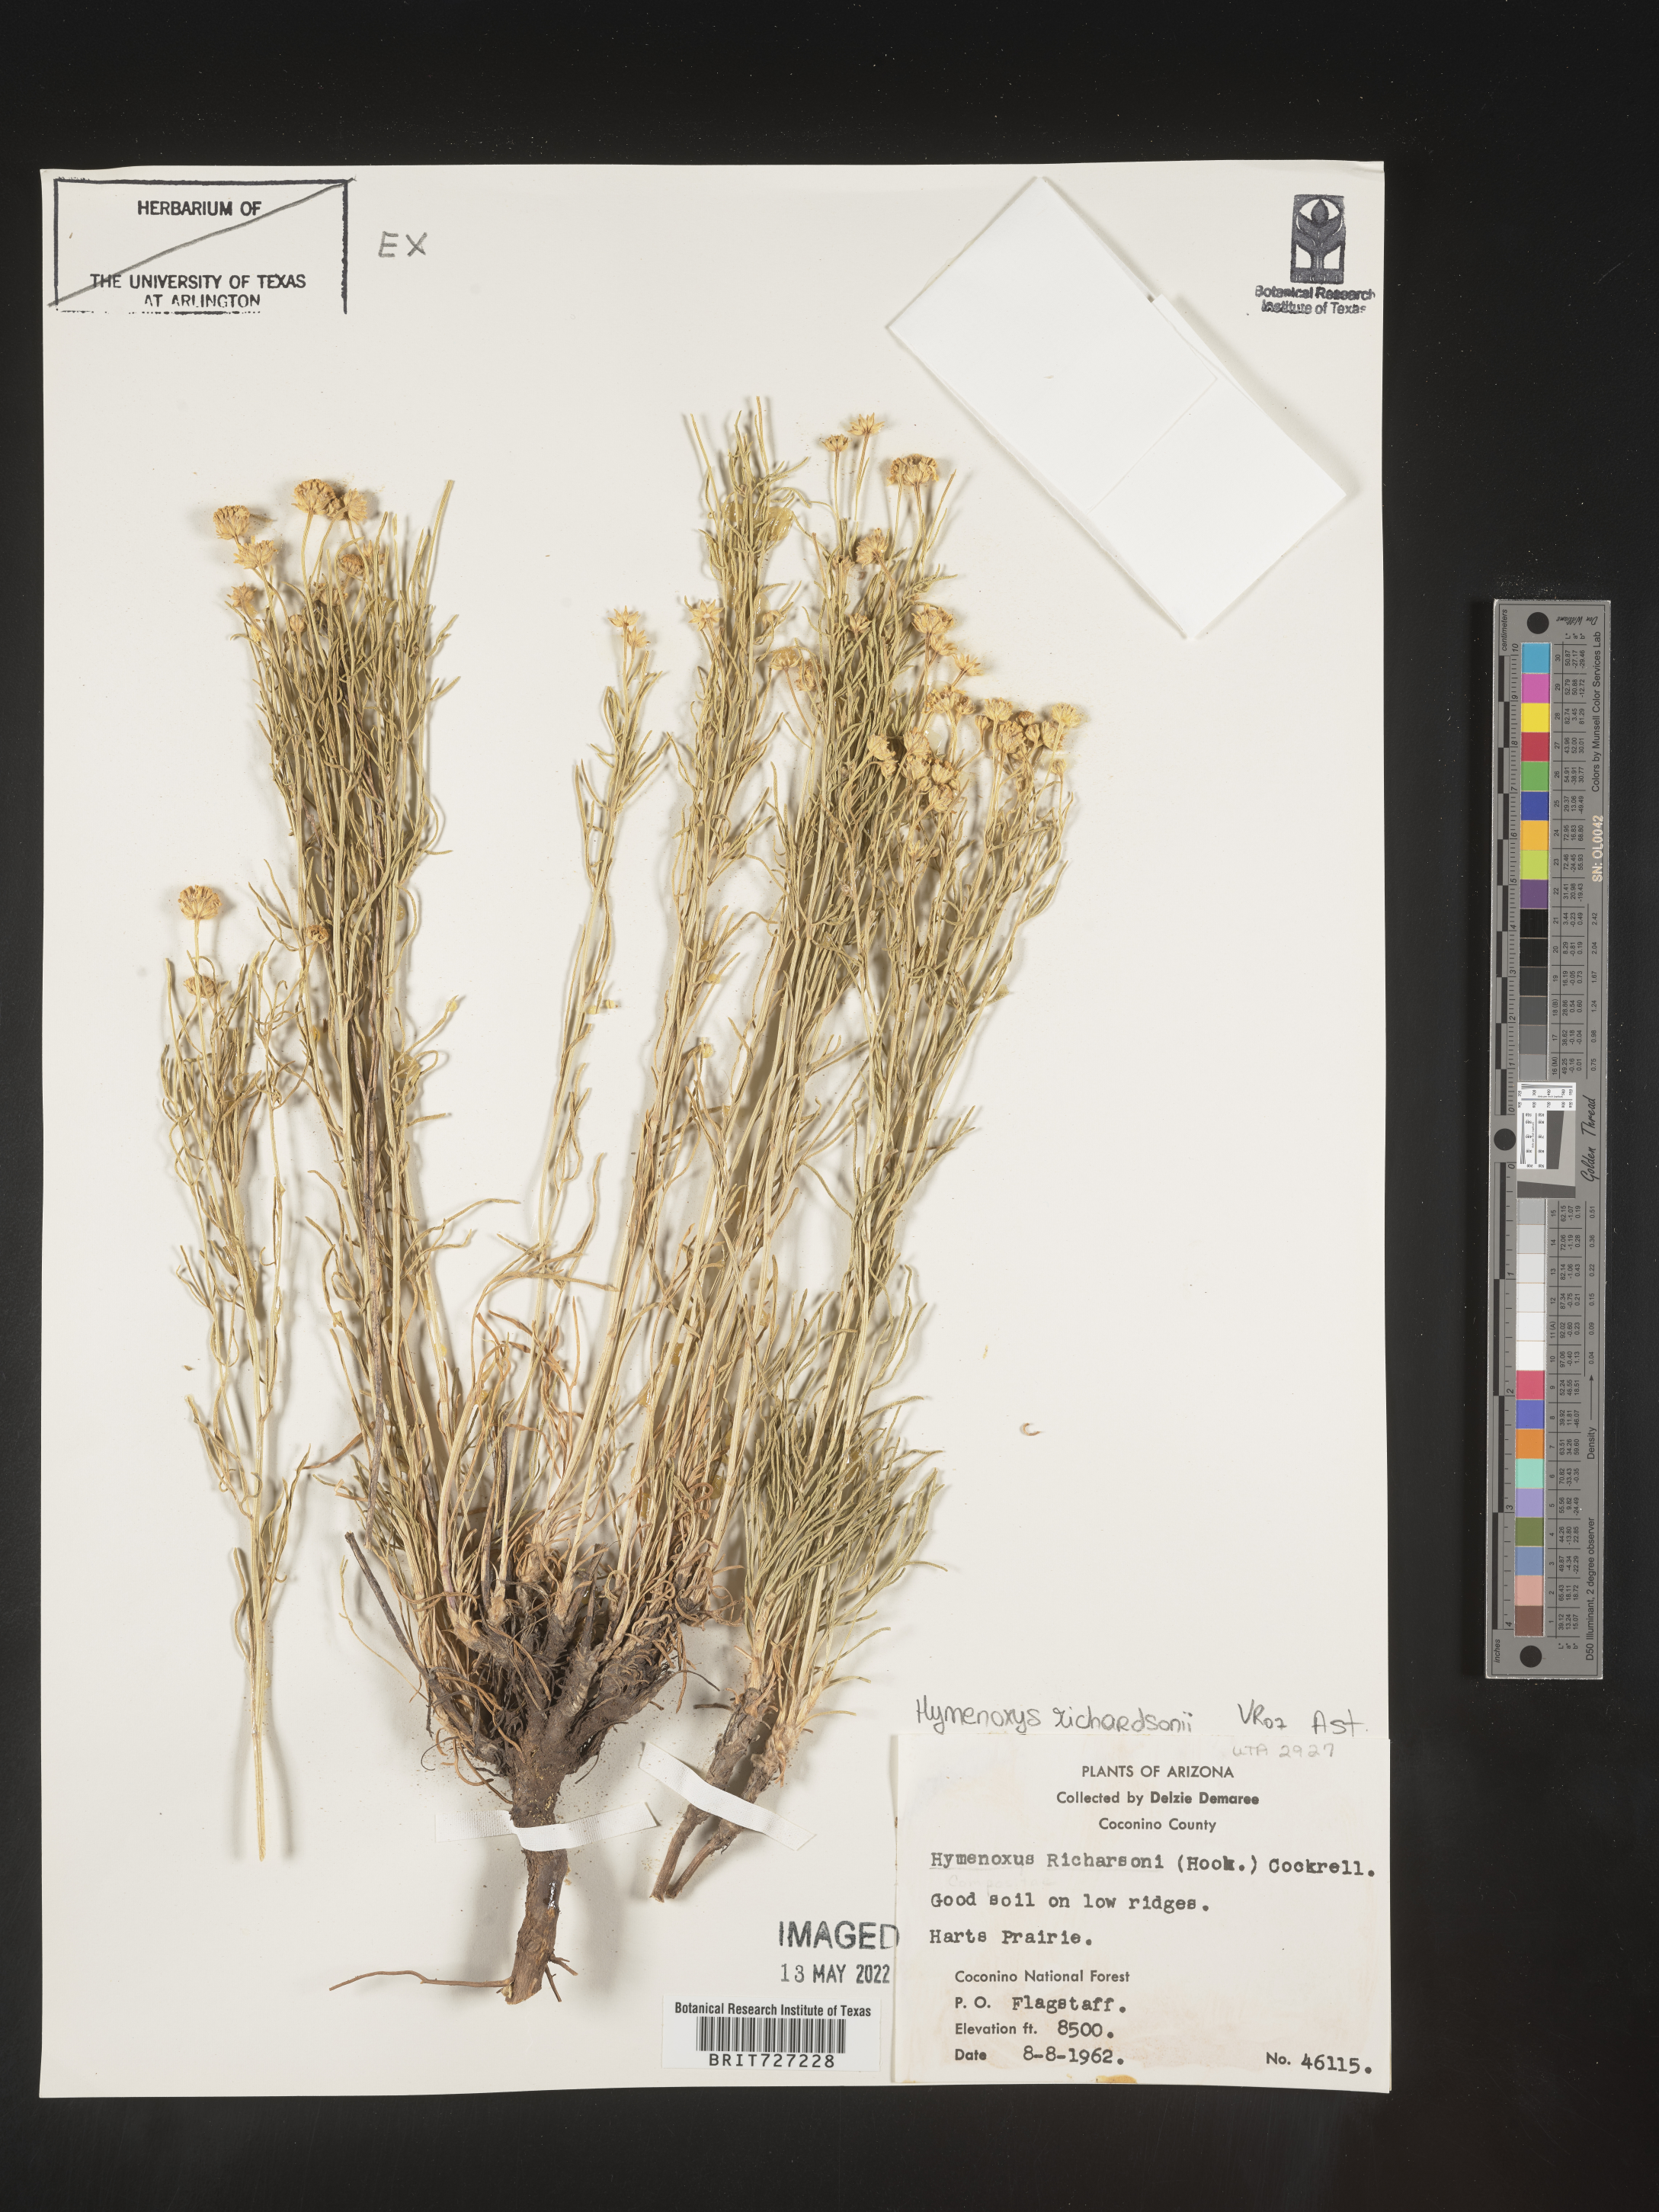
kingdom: Plantae
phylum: Tracheophyta
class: Magnoliopsida
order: Asterales
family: Asteraceae
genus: Hymenoxys
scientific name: Hymenoxys richardsonii
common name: Pingue rubberweed
